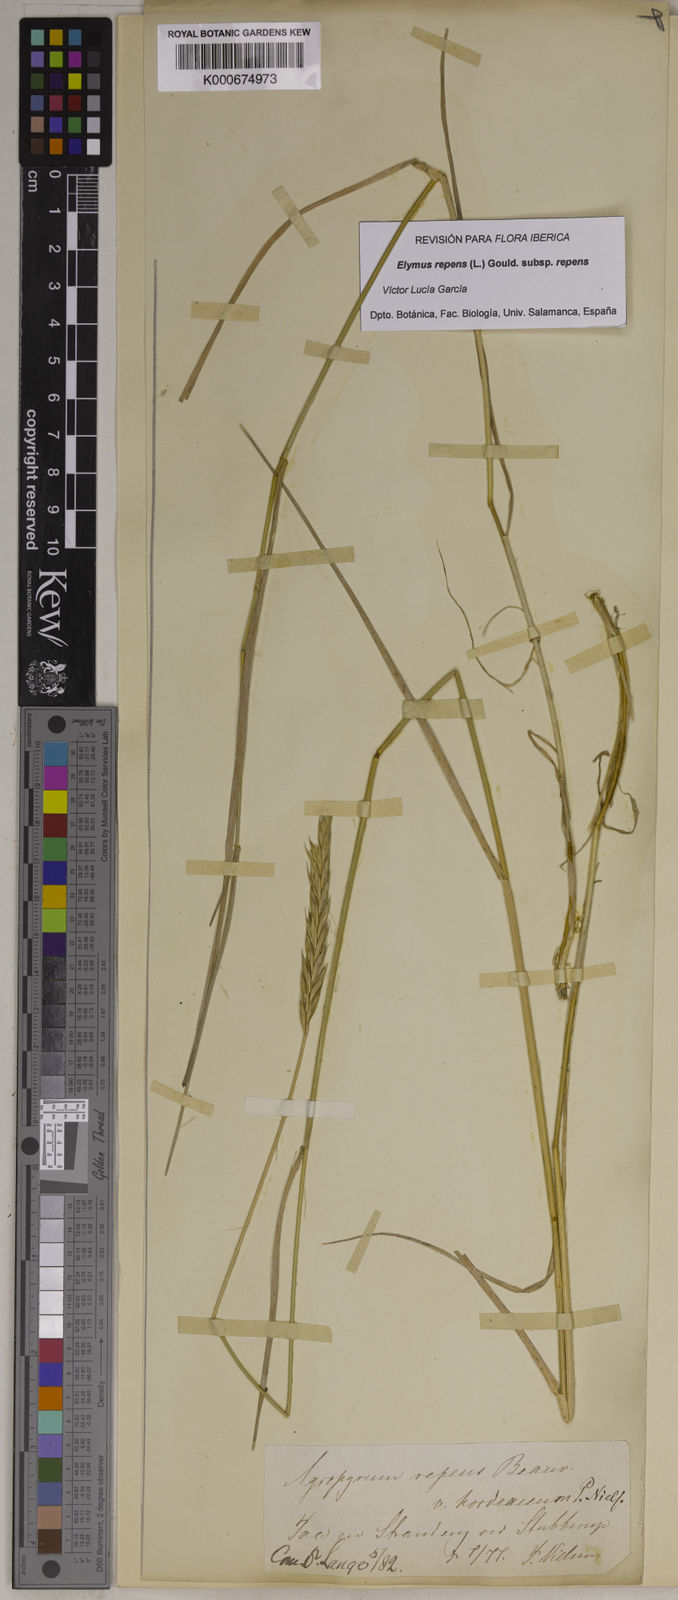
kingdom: Plantae
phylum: Tracheophyta
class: Liliopsida
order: Poales
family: Poaceae
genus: Elymus
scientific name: Elymus repens
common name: Quackgrass
